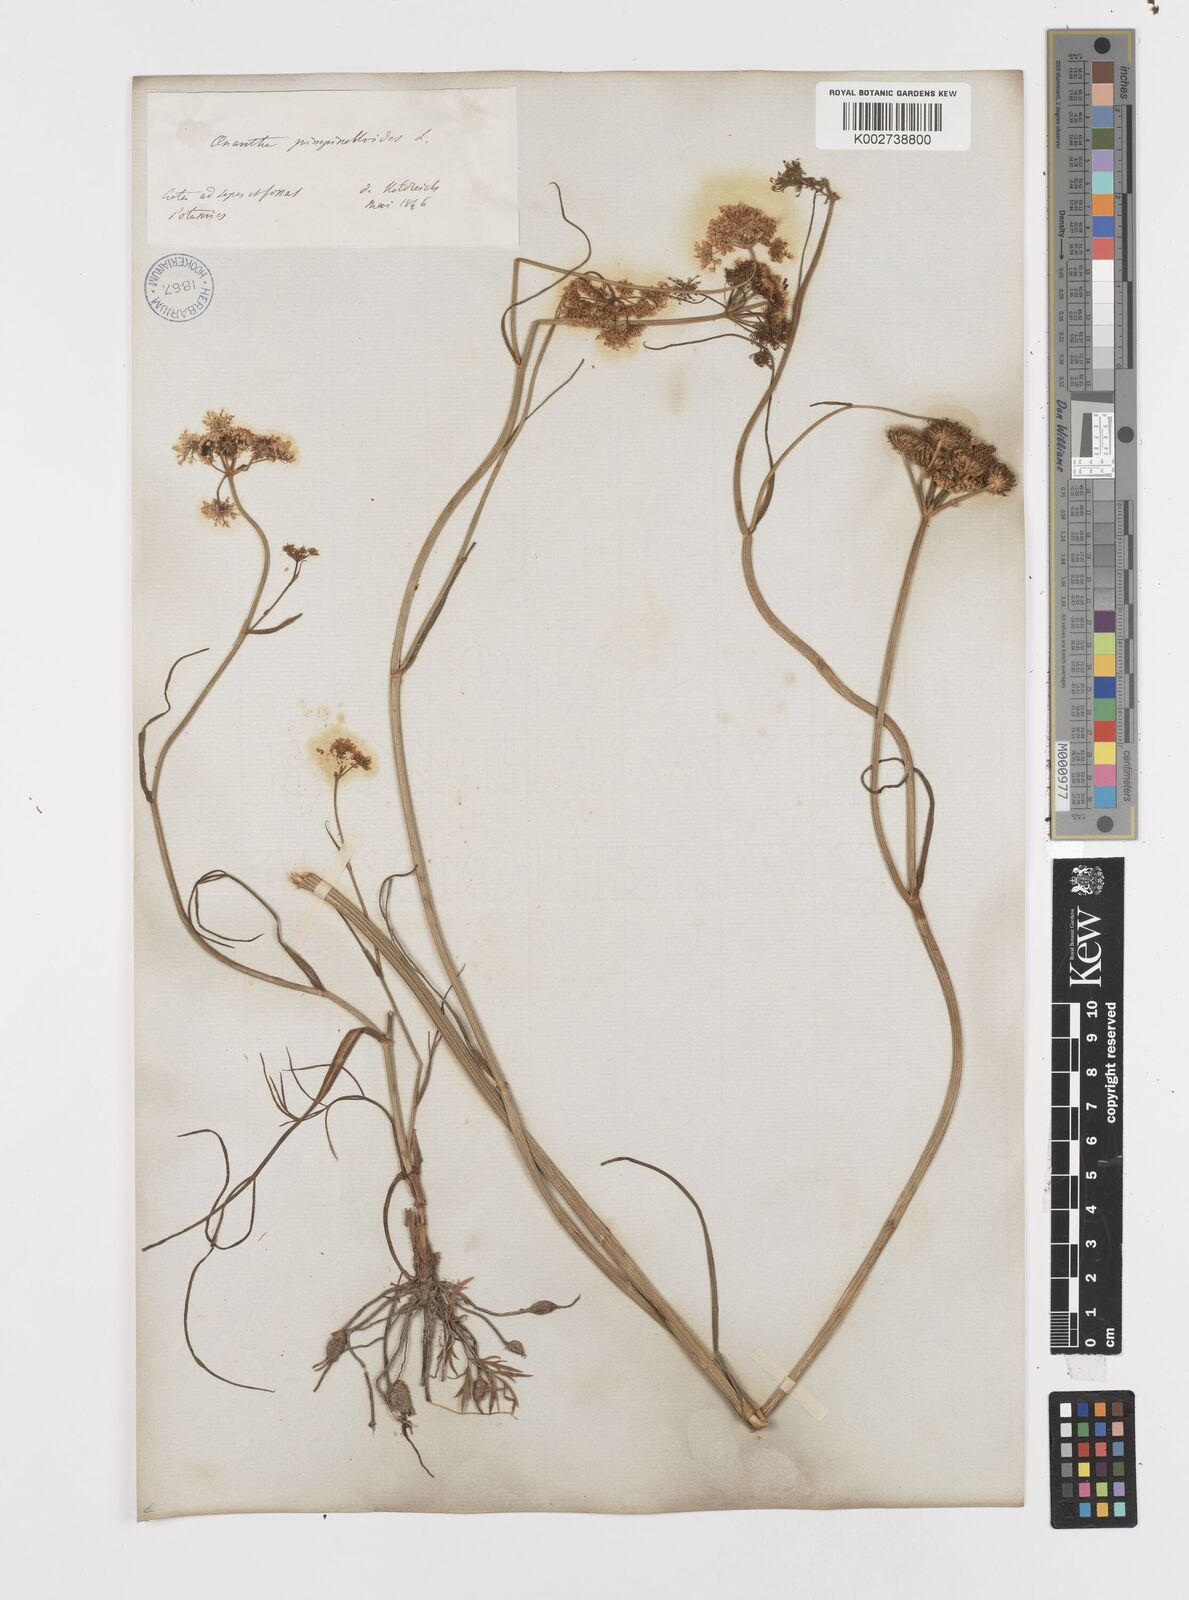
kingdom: Plantae
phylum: Tracheophyta
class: Magnoliopsida
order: Apiales
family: Apiaceae
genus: Oenanthe
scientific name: Oenanthe pimpinelloides
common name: Corky-fruited water-dropwort
